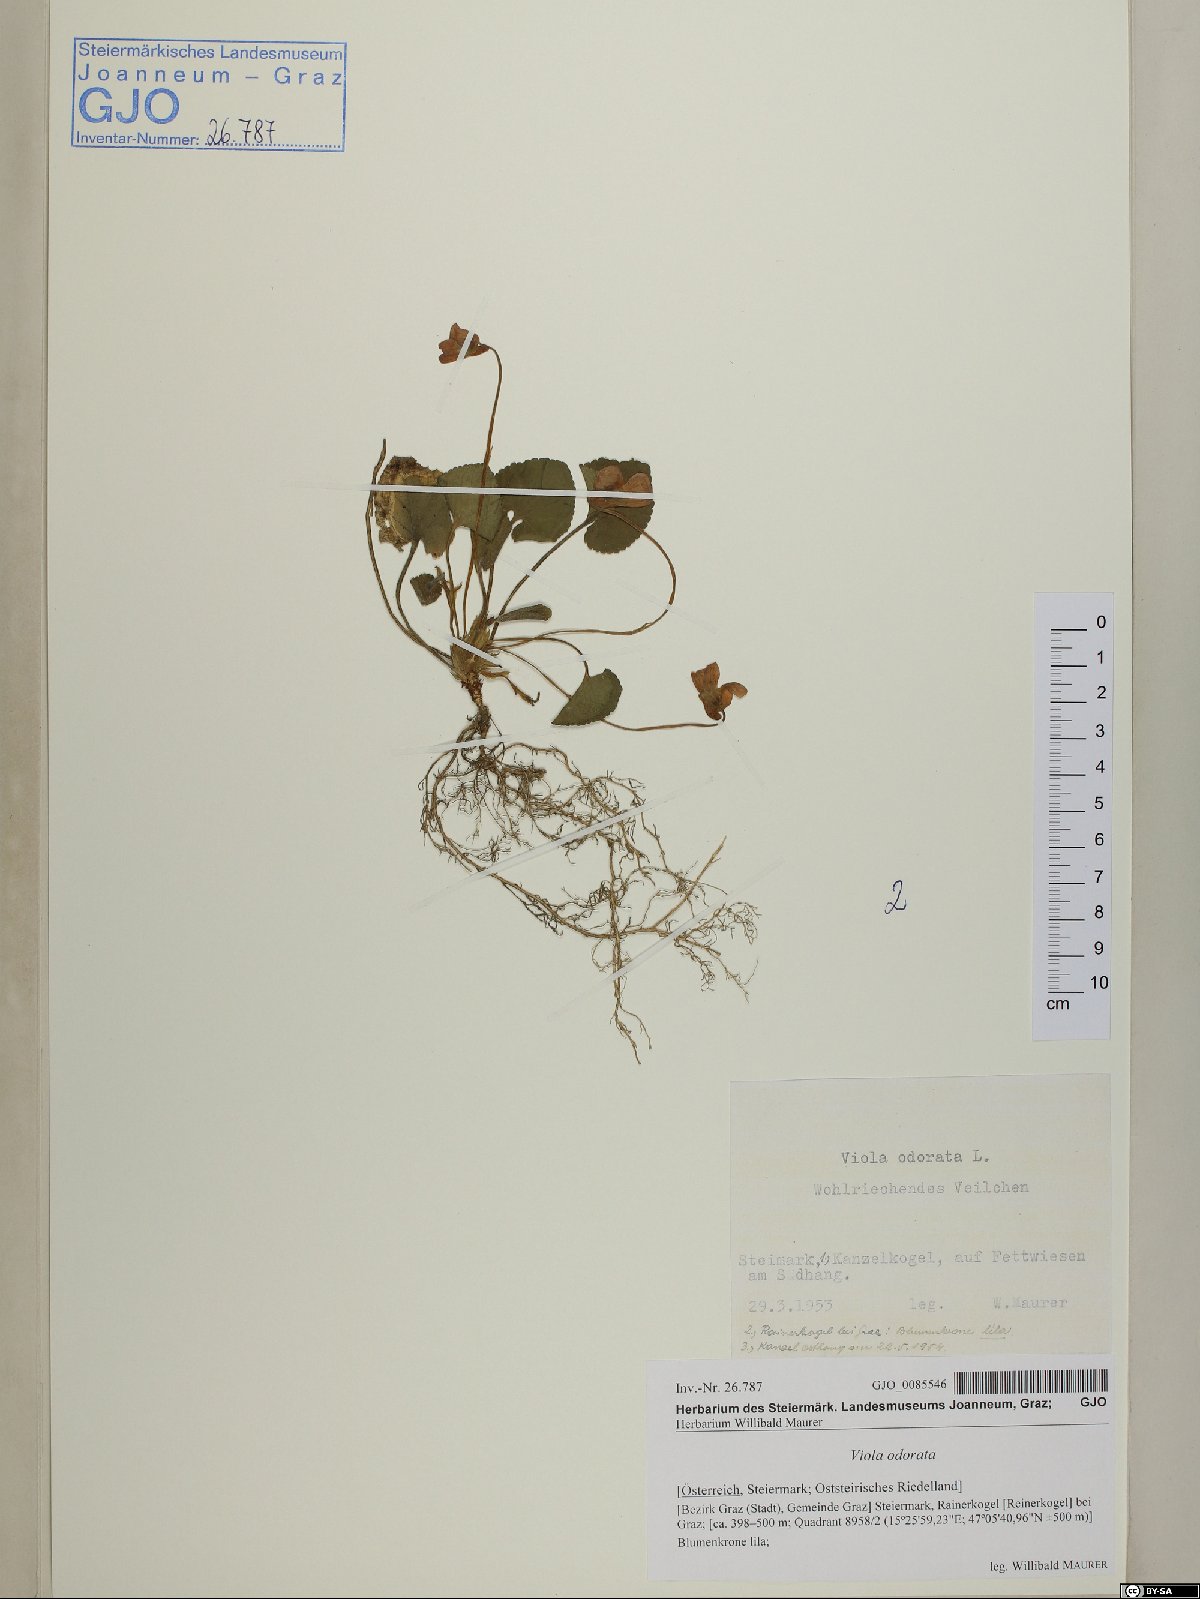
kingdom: Plantae
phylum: Tracheophyta
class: Magnoliopsida
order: Malpighiales
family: Violaceae
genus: Viola
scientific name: Viola odorata
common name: Sweet violet
